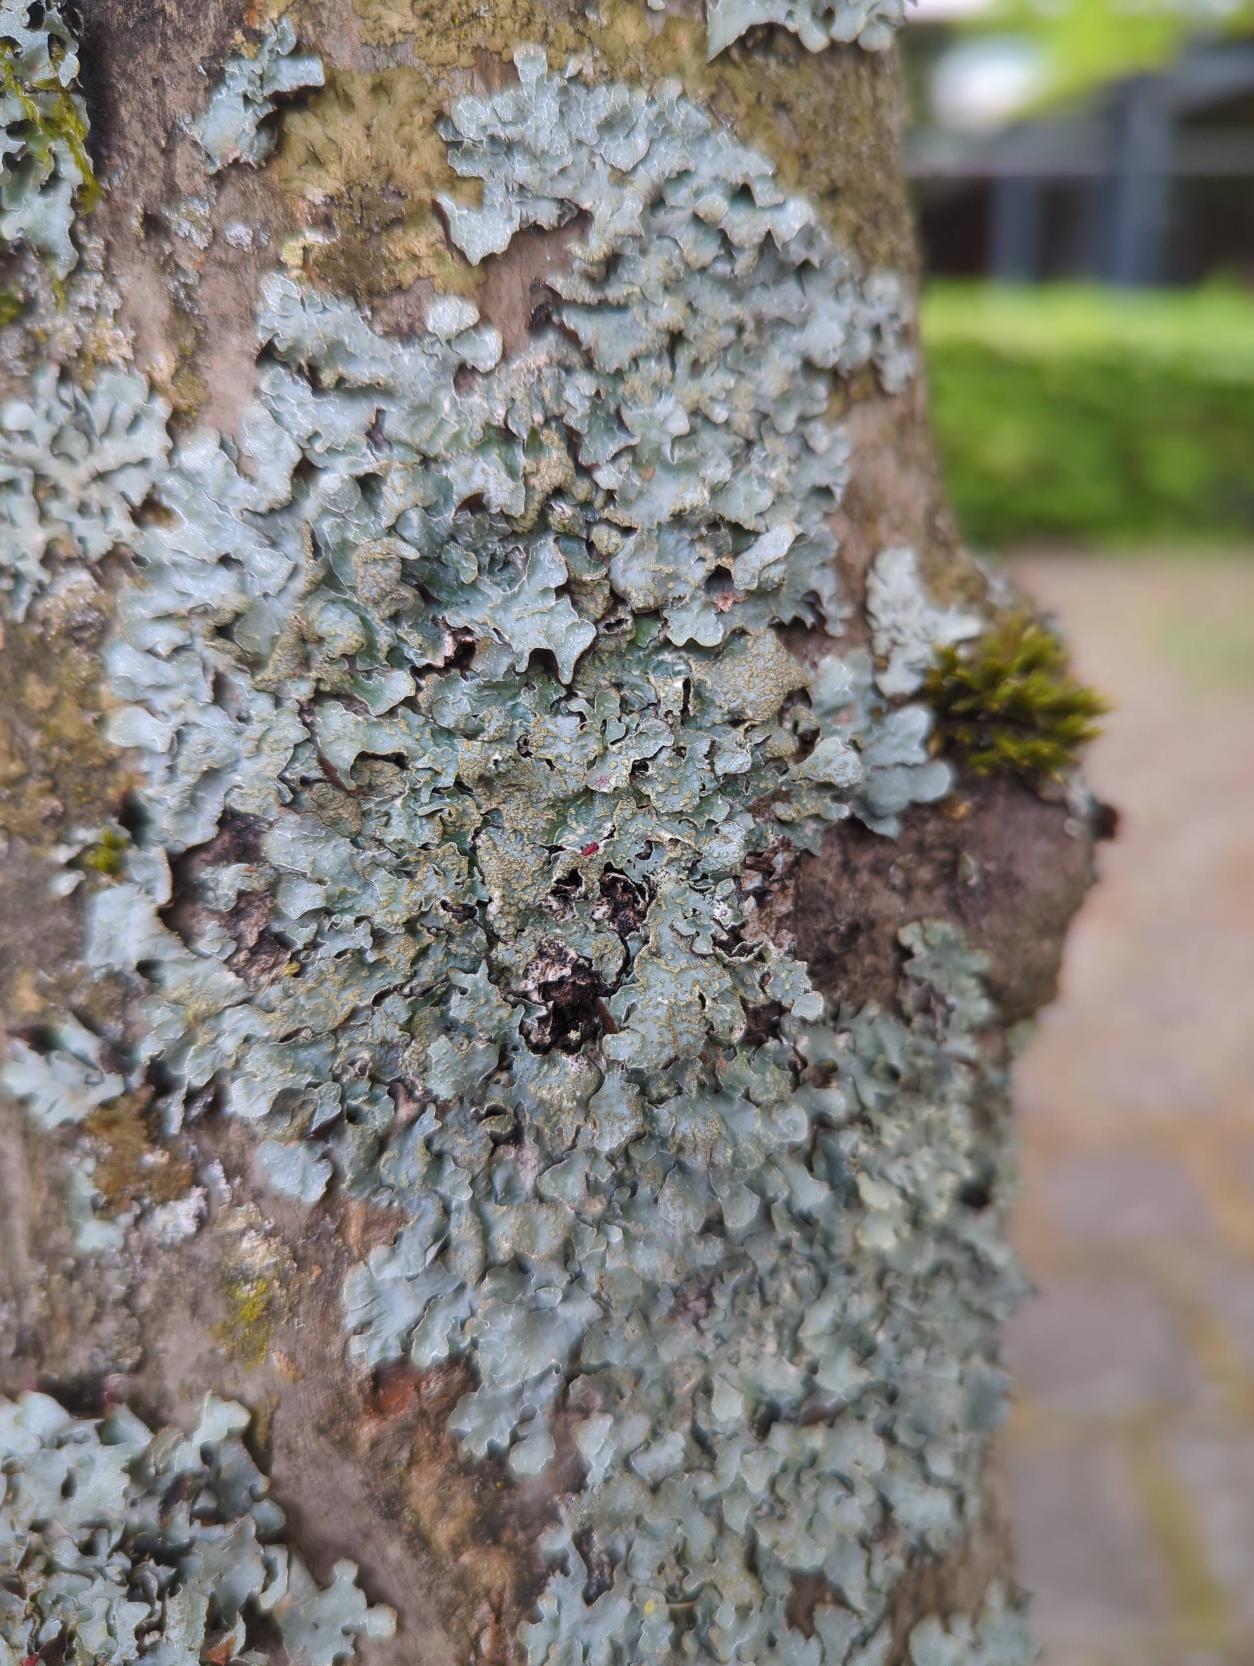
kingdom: Fungi
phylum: Ascomycota
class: Lecanoromycetes
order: Lecanorales
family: Parmeliaceae
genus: Parmelia
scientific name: Parmelia sulcata
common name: Rynket skållav
